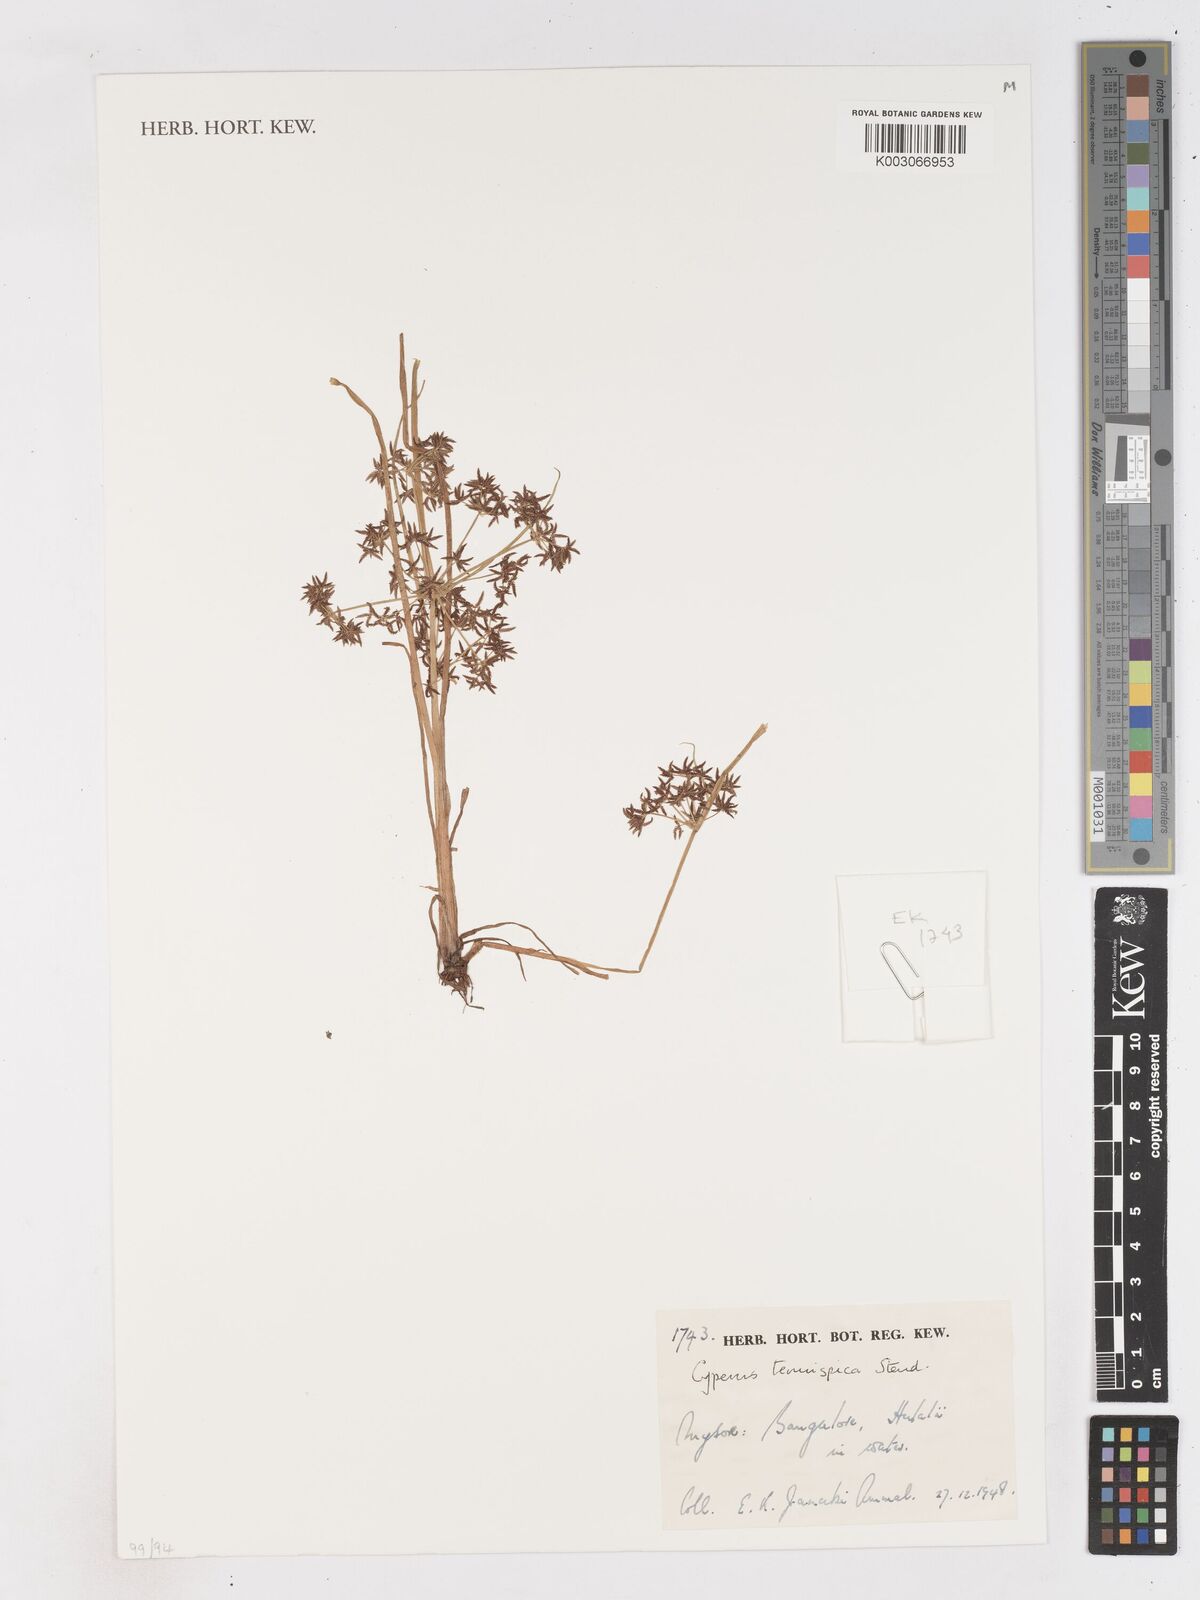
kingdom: Plantae
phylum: Tracheophyta
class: Liliopsida
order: Poales
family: Cyperaceae
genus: Cyperus
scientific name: Cyperus tenuispica
